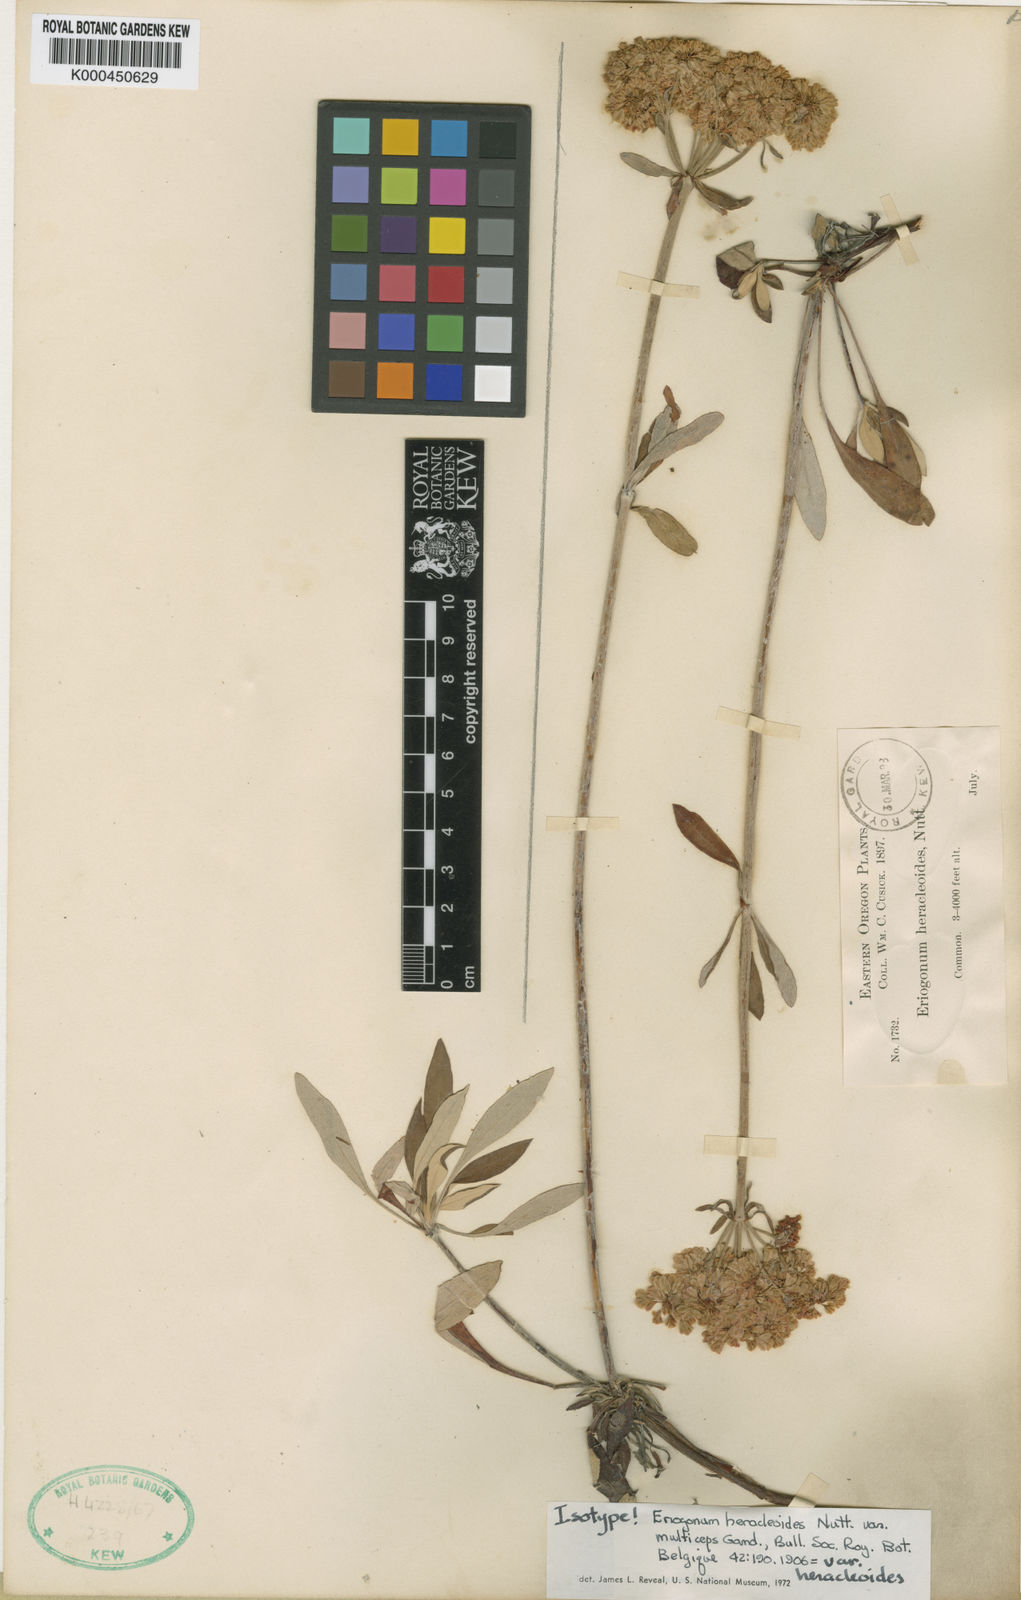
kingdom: Plantae
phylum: Tracheophyta
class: Magnoliopsida
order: Caryophyllales
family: Polygonaceae
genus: Eriogonum
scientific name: Eriogonum
